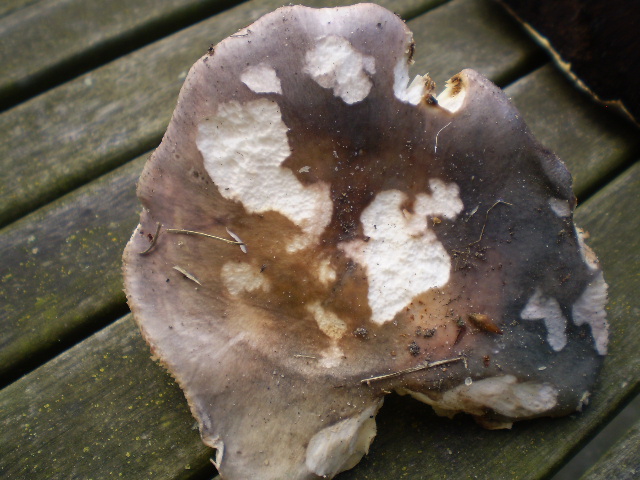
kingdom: Fungi
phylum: Basidiomycota
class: Agaricomycetes
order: Russulales
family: Russulaceae
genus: Russula
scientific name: Russula cyanoxantha
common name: broget skørhat
